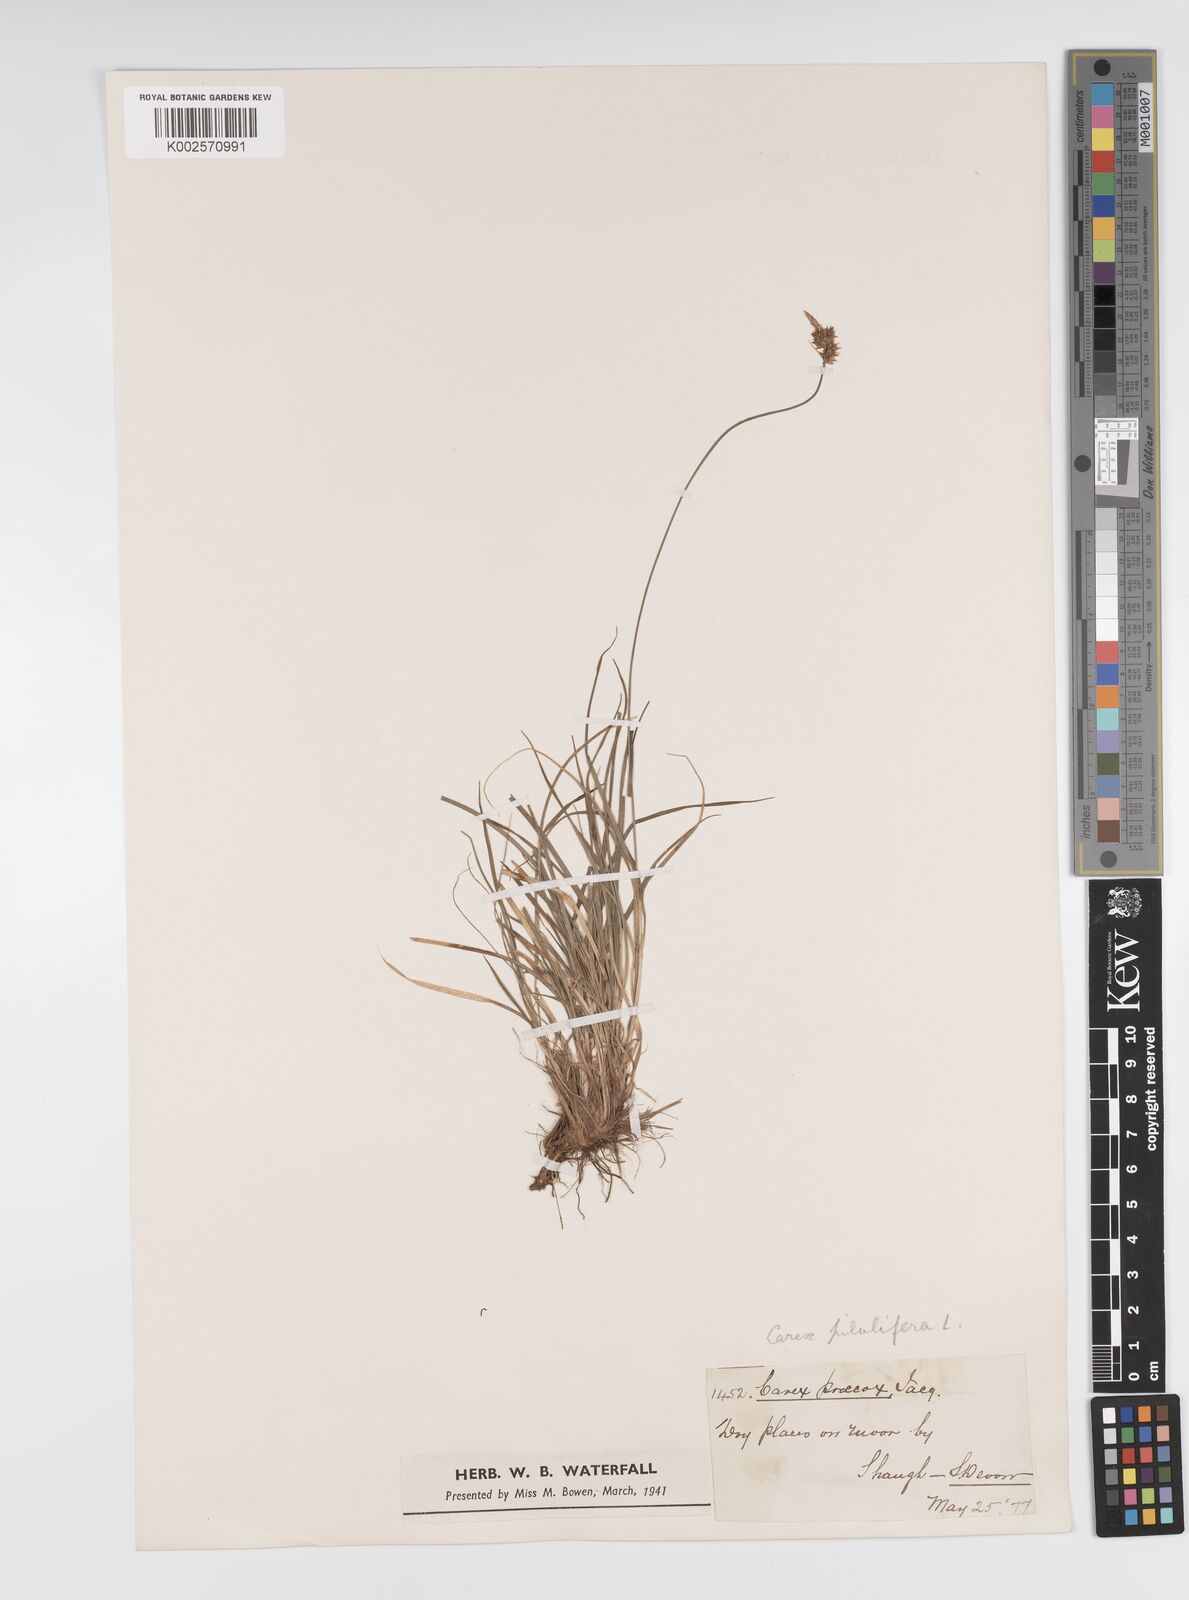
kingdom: Plantae
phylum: Tracheophyta
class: Liliopsida
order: Poales
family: Cyperaceae
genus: Carex
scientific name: Carex praecox
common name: Early sedge
